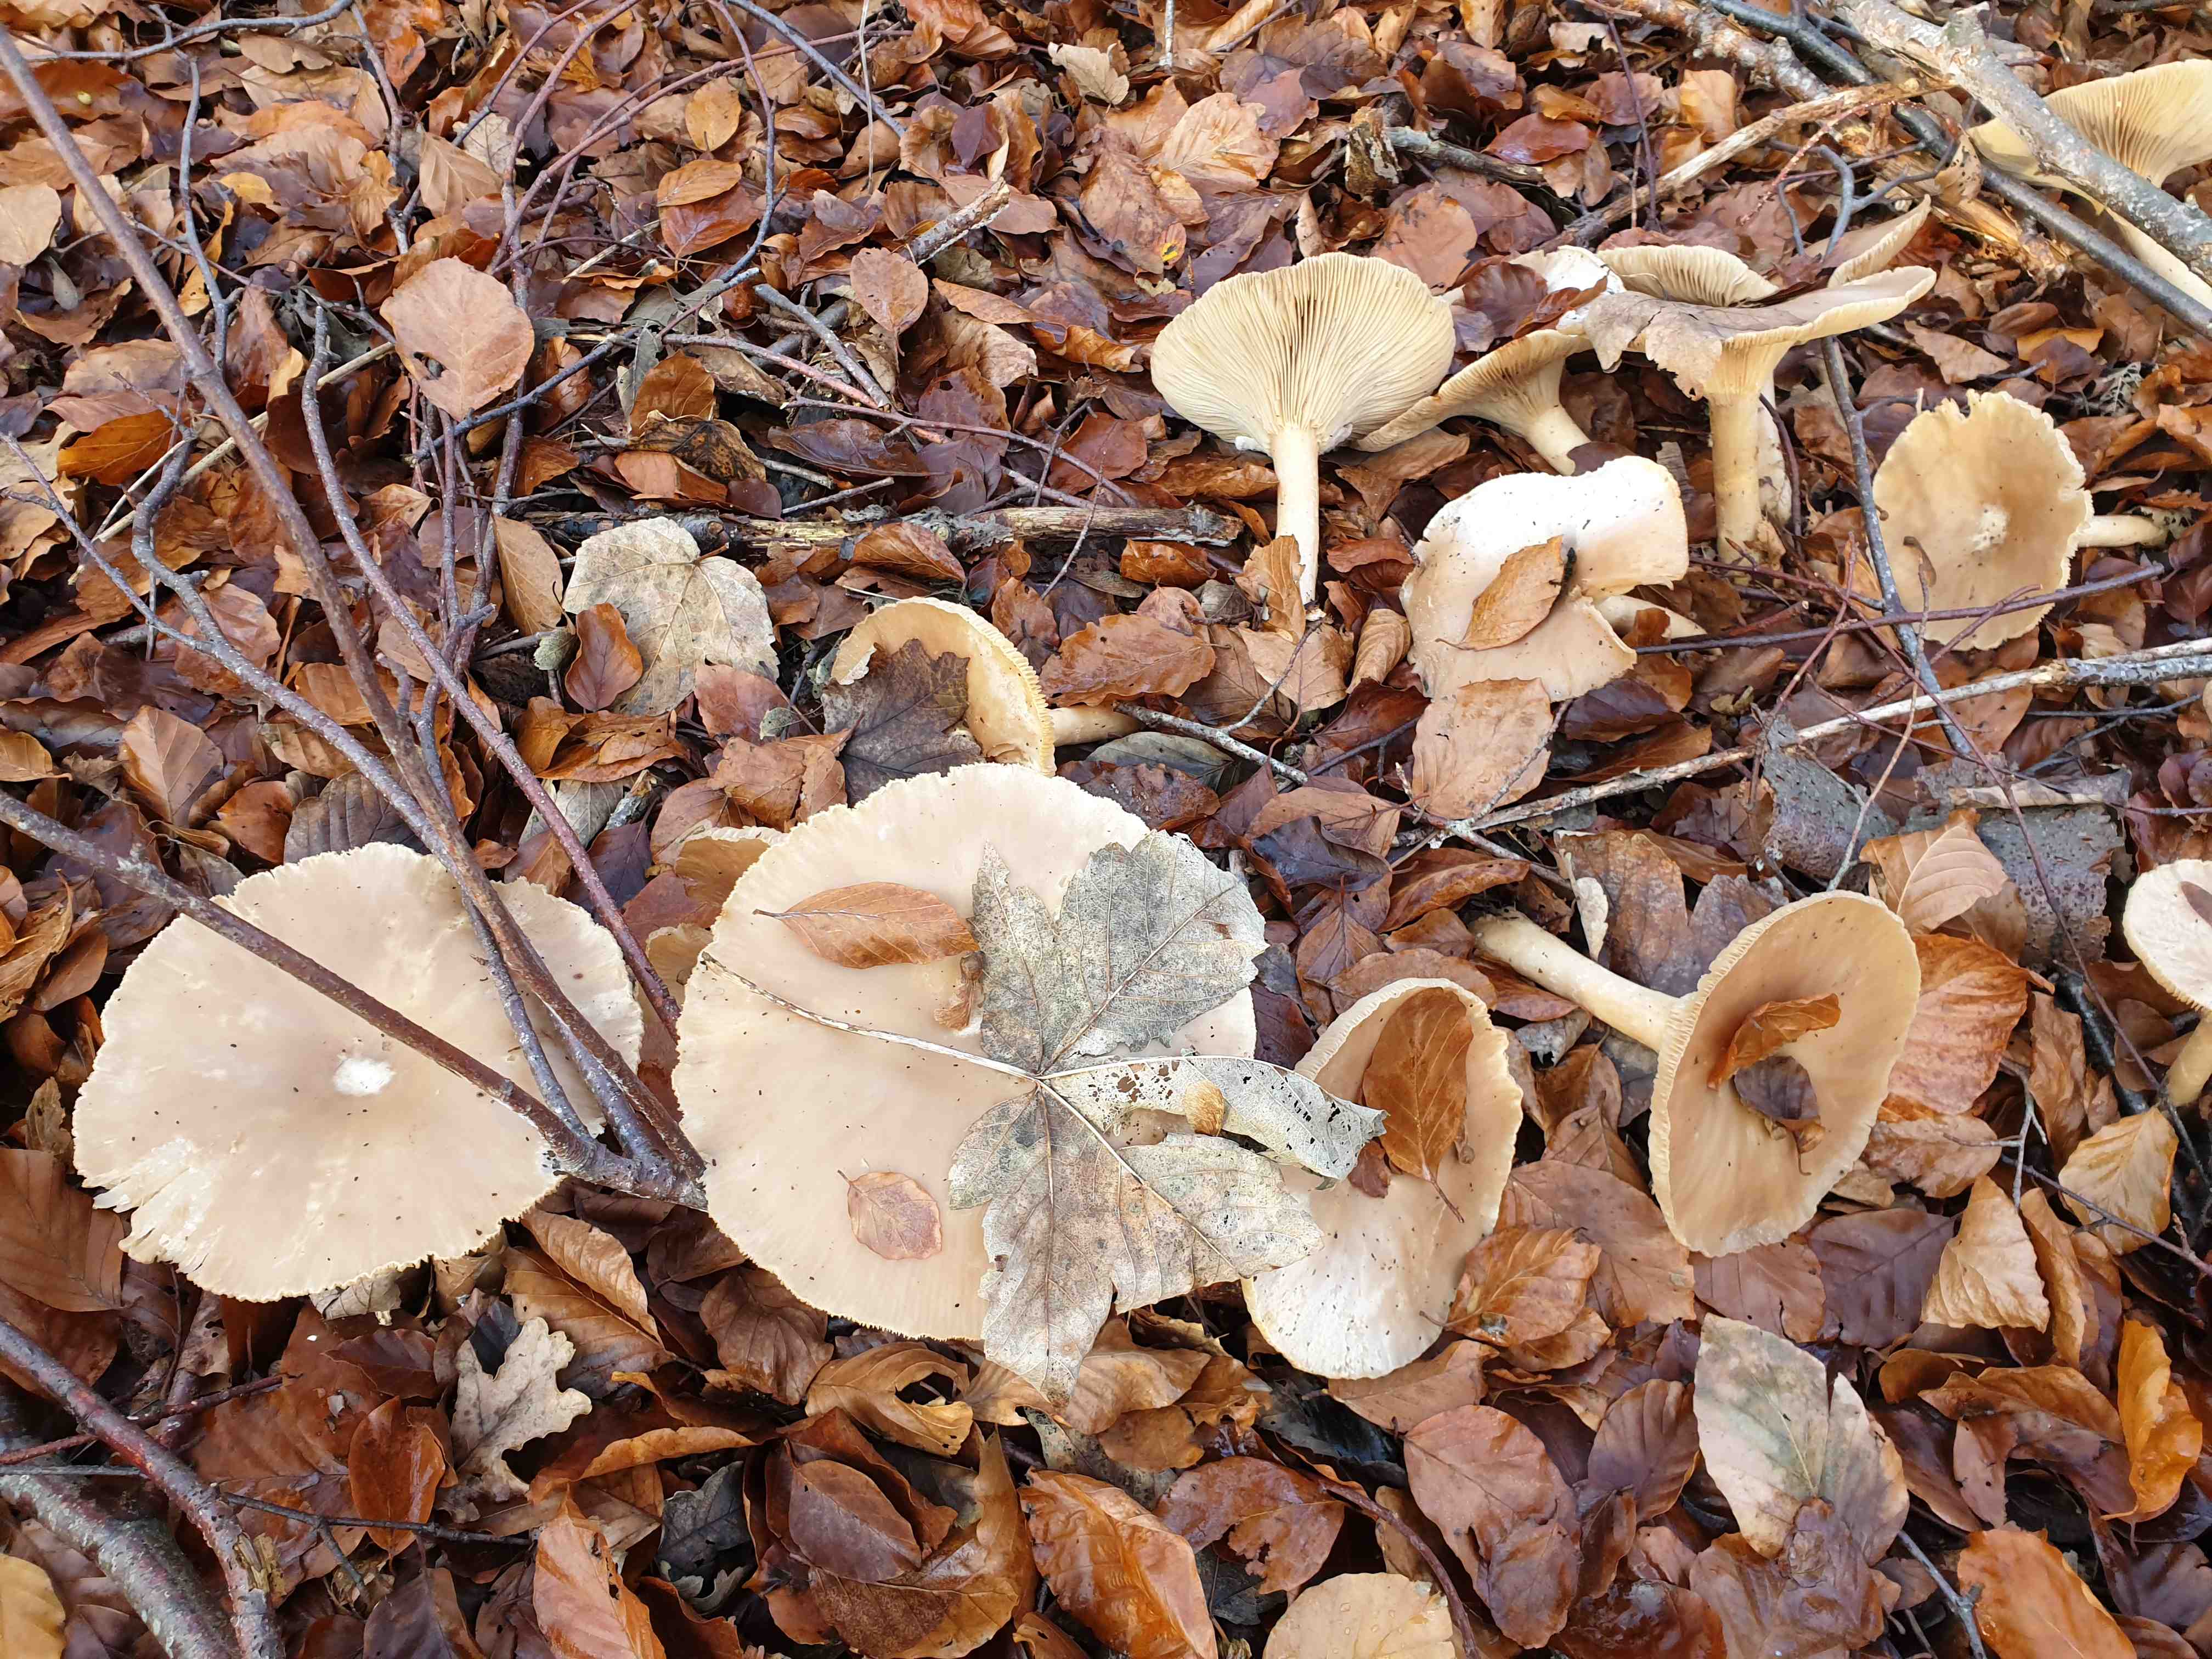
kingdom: Fungi
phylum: Basidiomycota
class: Agaricomycetes
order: Agaricales
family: Tricholomataceae
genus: Infundibulicybe
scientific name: Infundibulicybe geotropa
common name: stor tragthat
